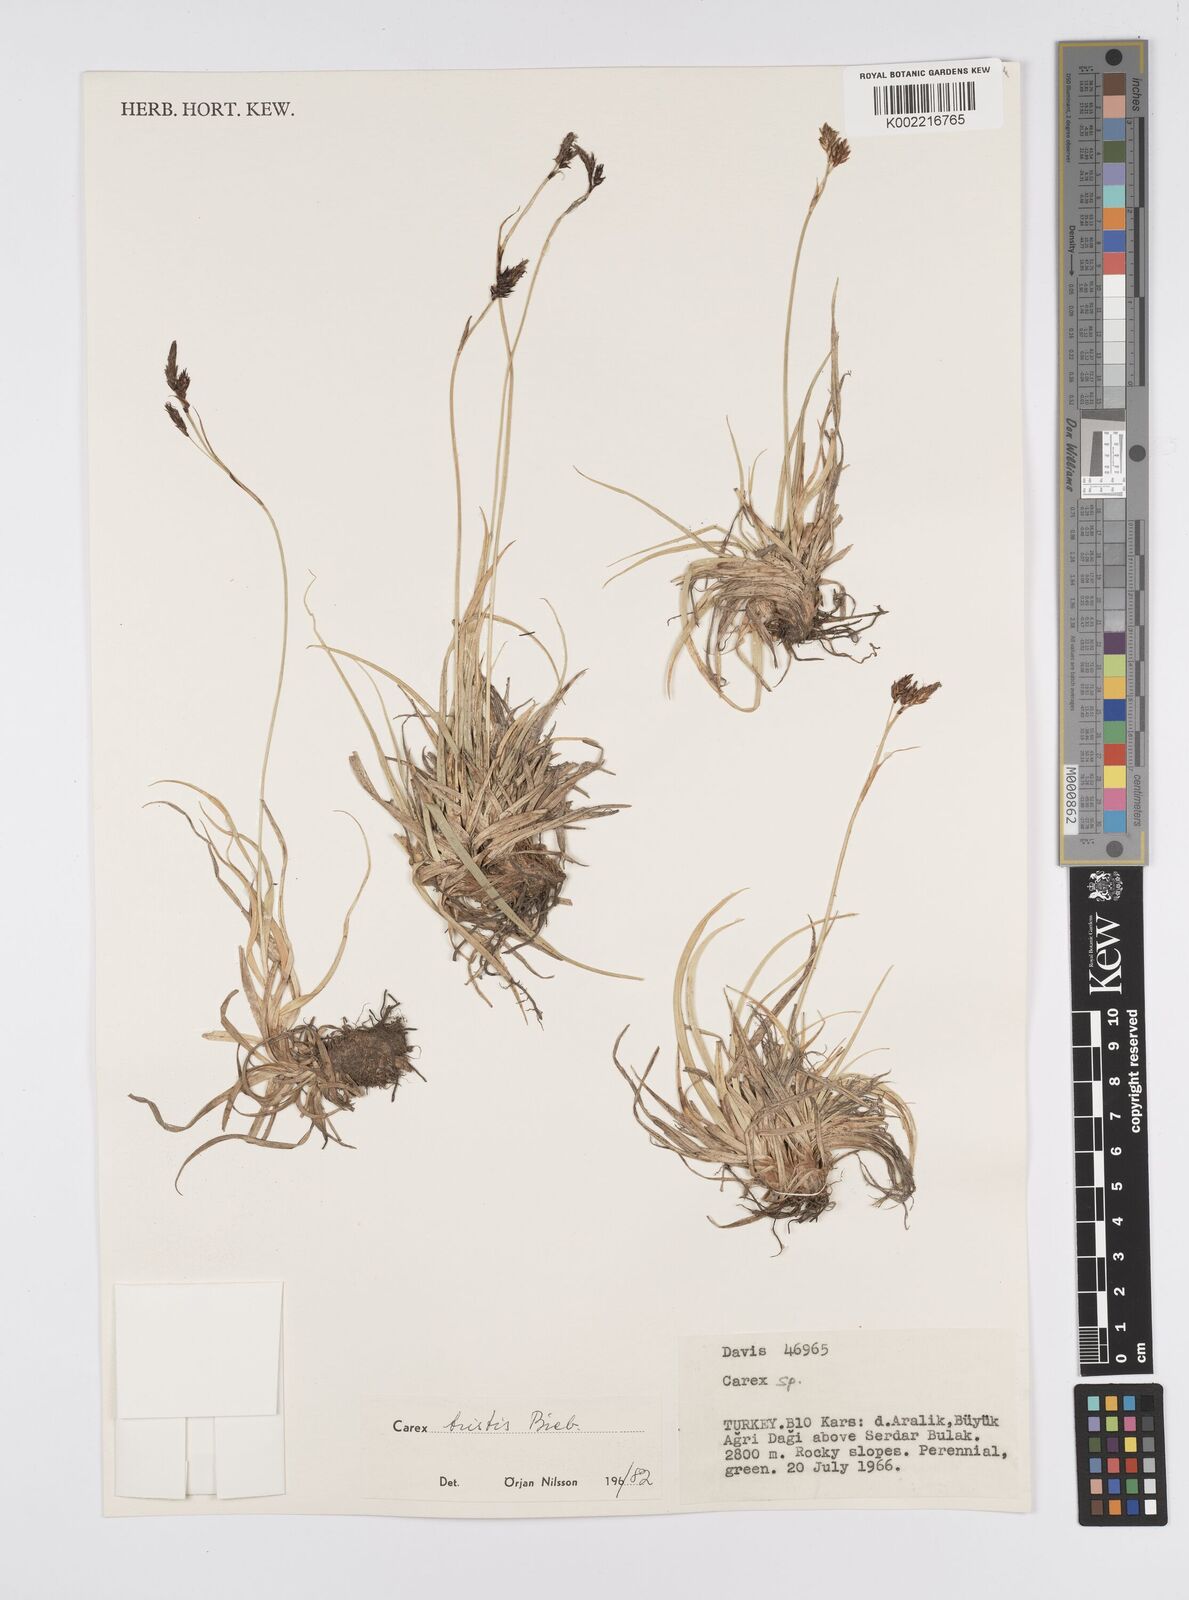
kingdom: Plantae
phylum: Tracheophyta
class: Liliopsida
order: Poales
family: Cyperaceae
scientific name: Cyperaceae
